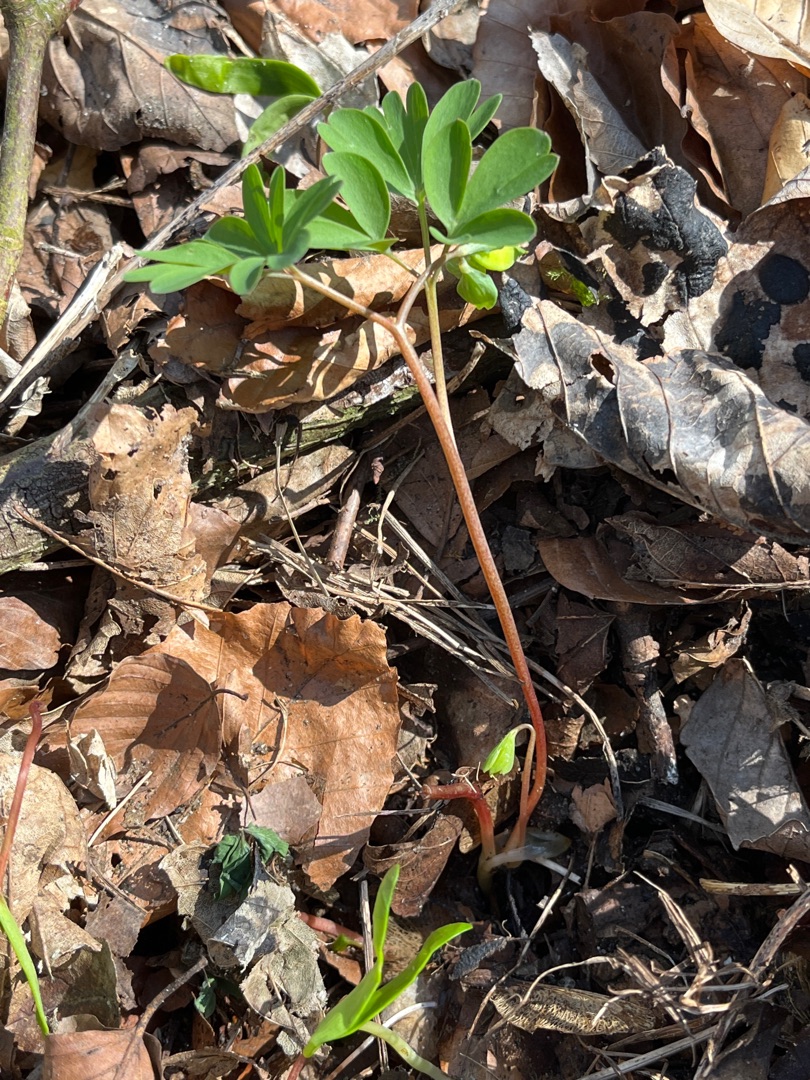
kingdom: Plantae
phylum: Tracheophyta
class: Magnoliopsida
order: Ranunculales
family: Papaveraceae
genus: Corydalis
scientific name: Corydalis intermedia
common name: Liden lærkespore
